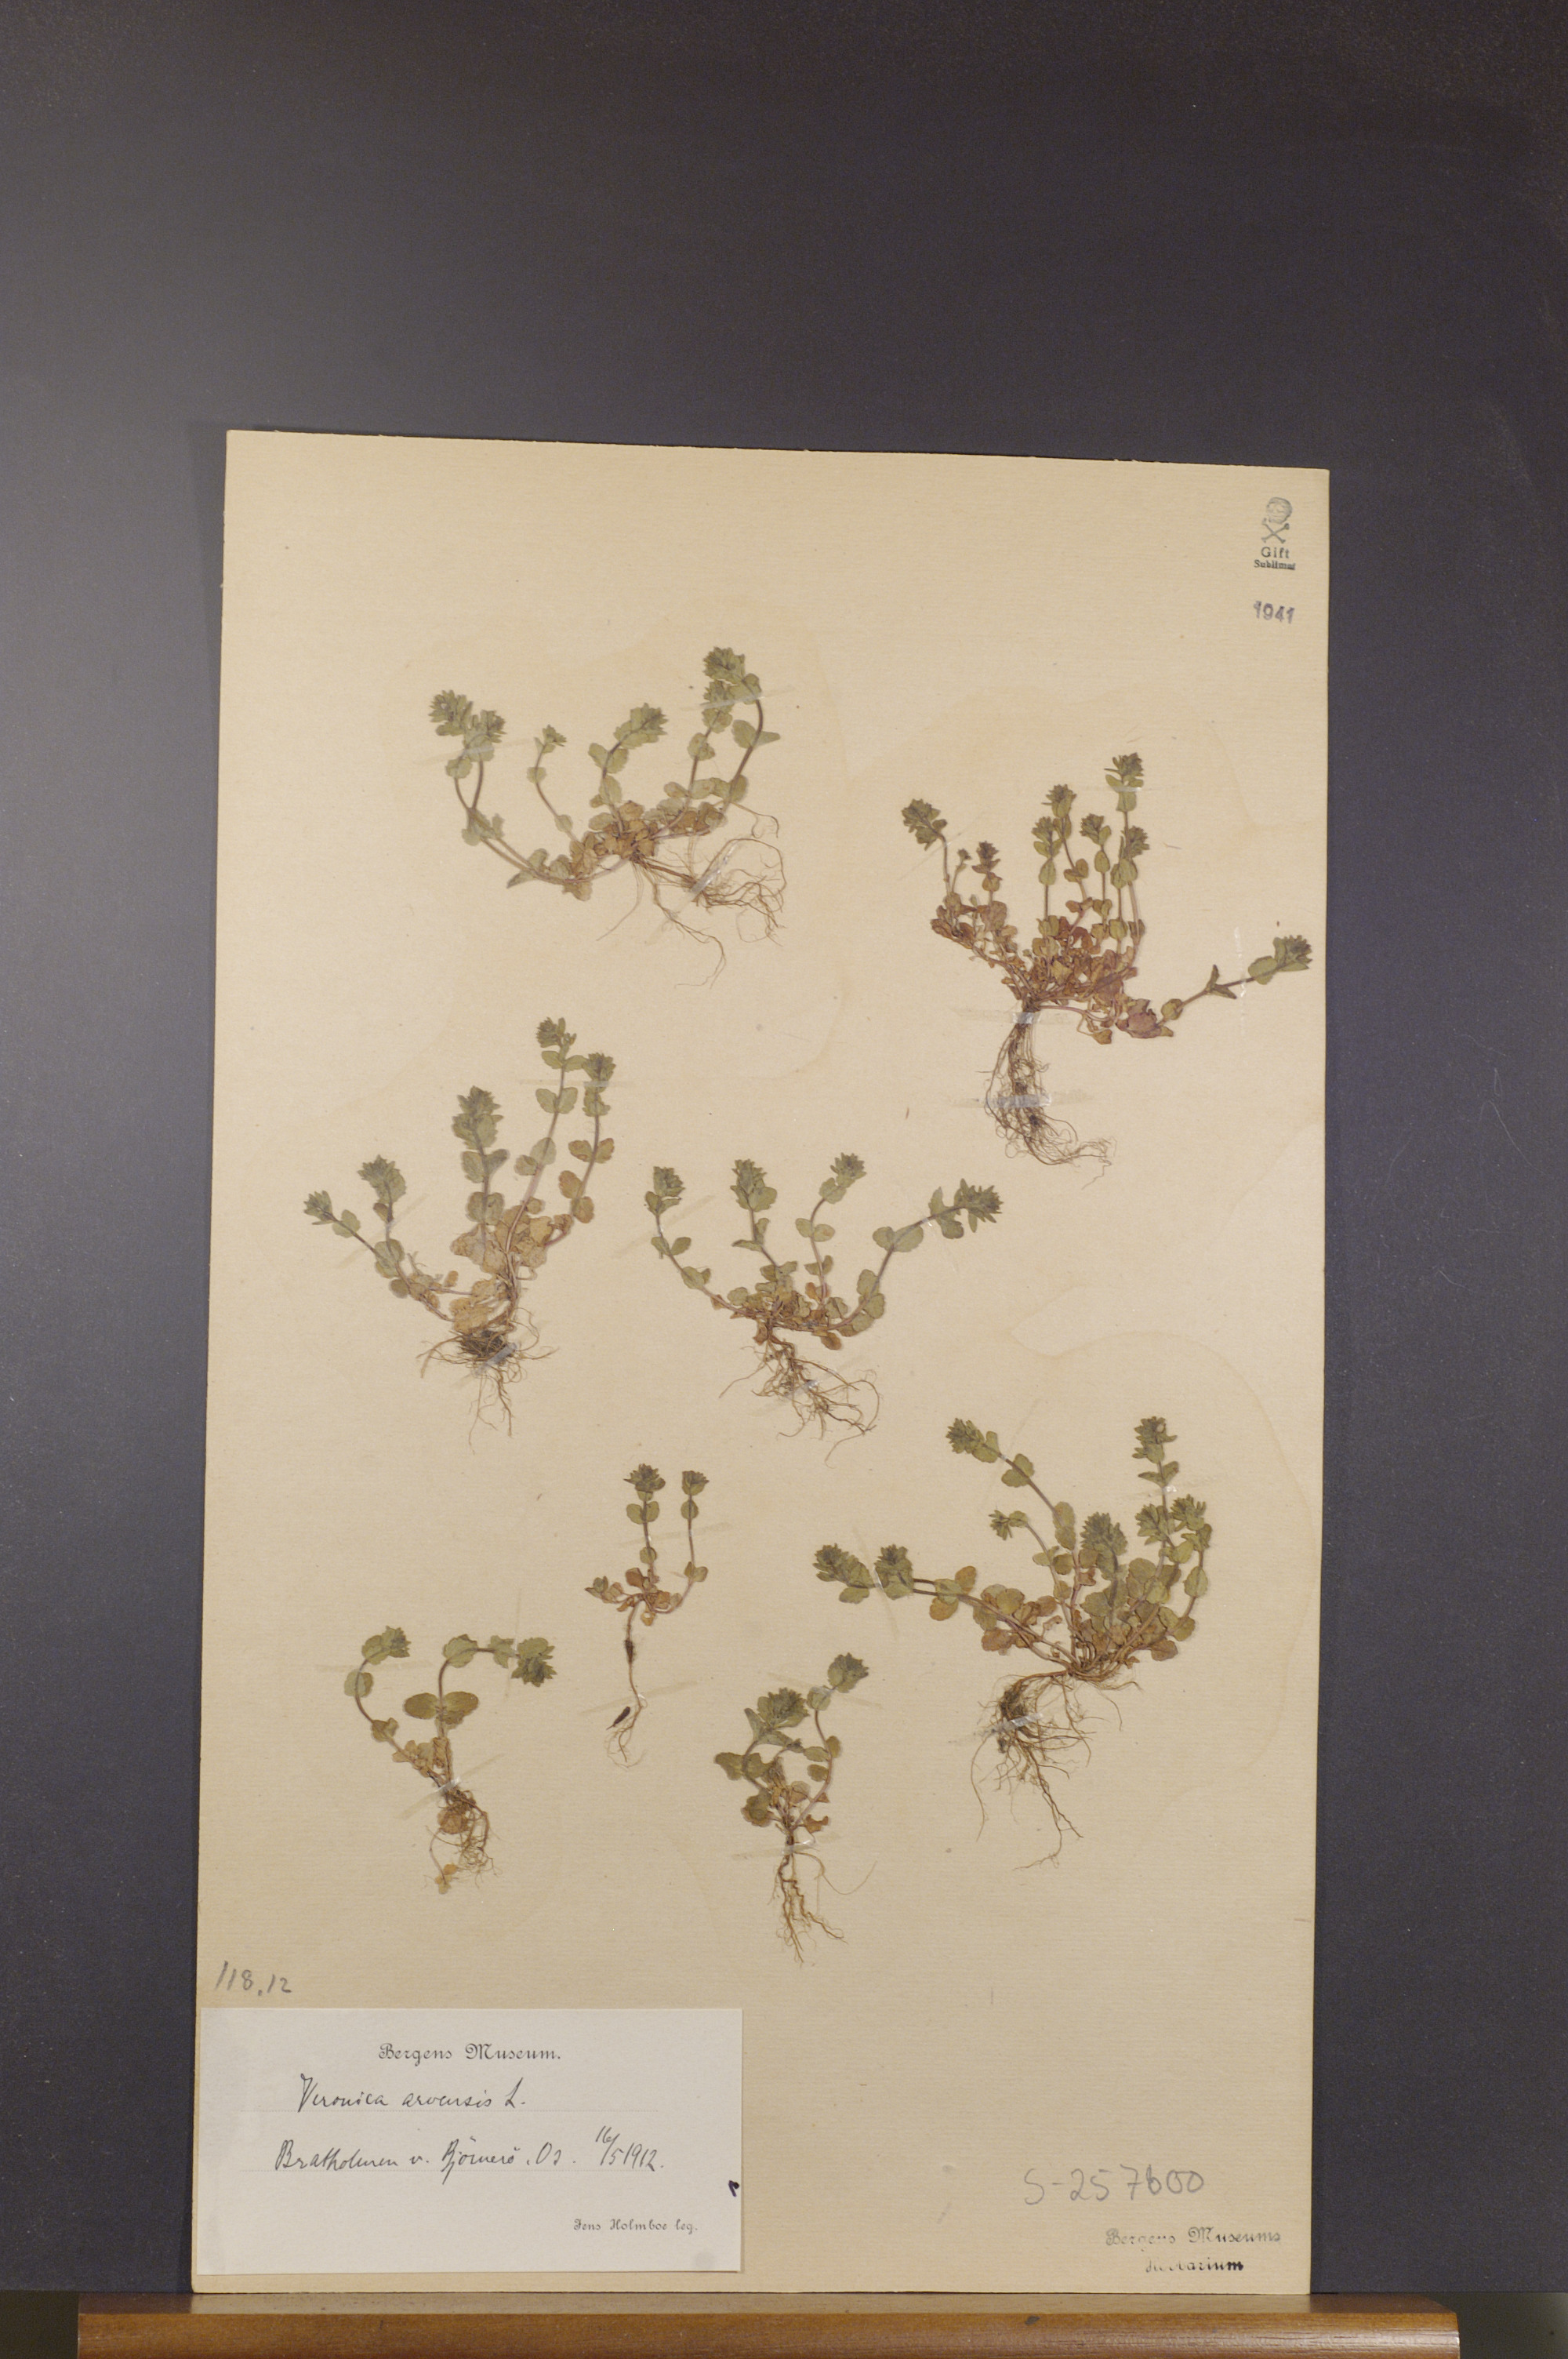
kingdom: Plantae
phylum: Tracheophyta
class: Magnoliopsida
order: Lamiales
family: Plantaginaceae
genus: Veronica
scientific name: Veronica arvensis
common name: Corn speedwell
